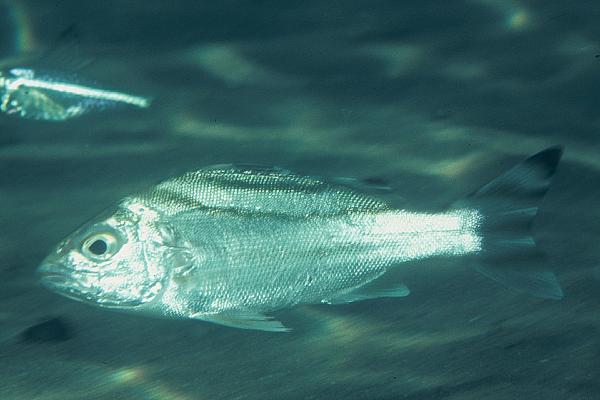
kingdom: Animalia
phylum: Chordata
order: Perciformes
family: Terapontidae
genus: Terapon
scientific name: Terapon jarbua
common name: Jarbua terapon
